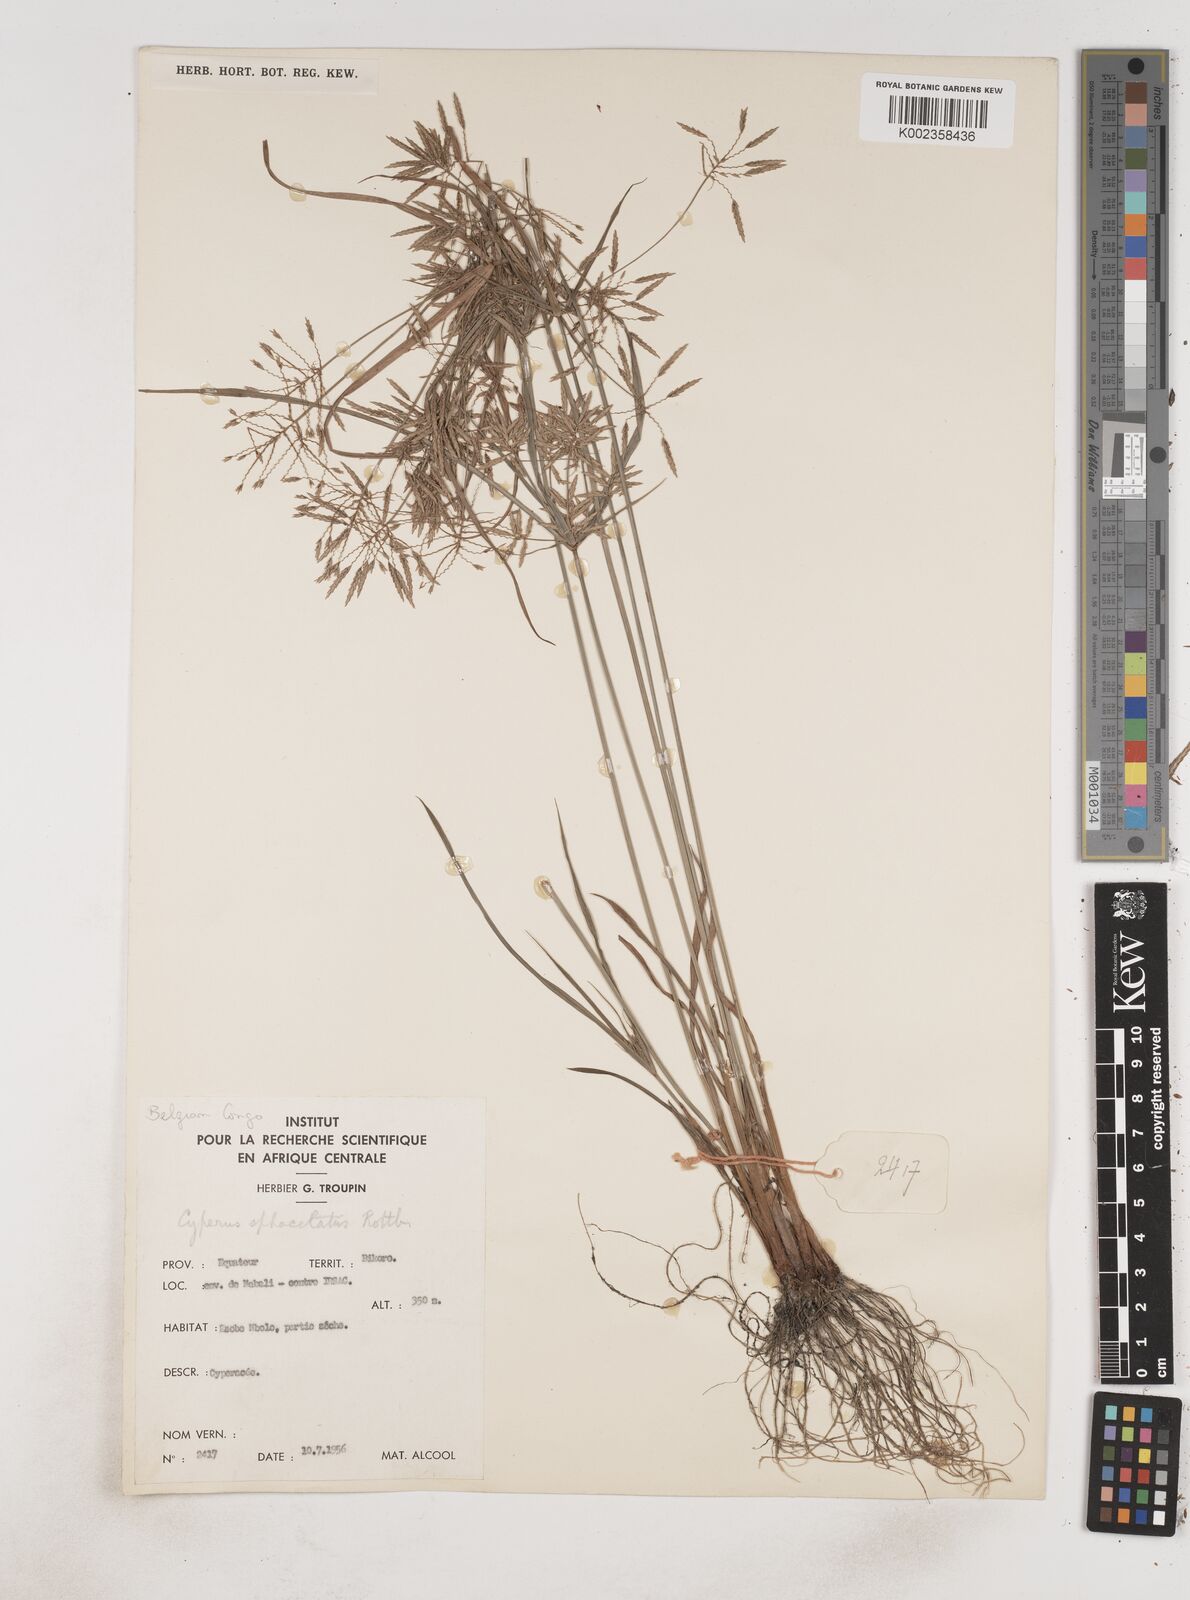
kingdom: Plantae
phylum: Tracheophyta
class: Liliopsida
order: Poales
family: Cyperaceae
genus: Cyperus
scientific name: Cyperus sphacelatus
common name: Roadside flatsedge
